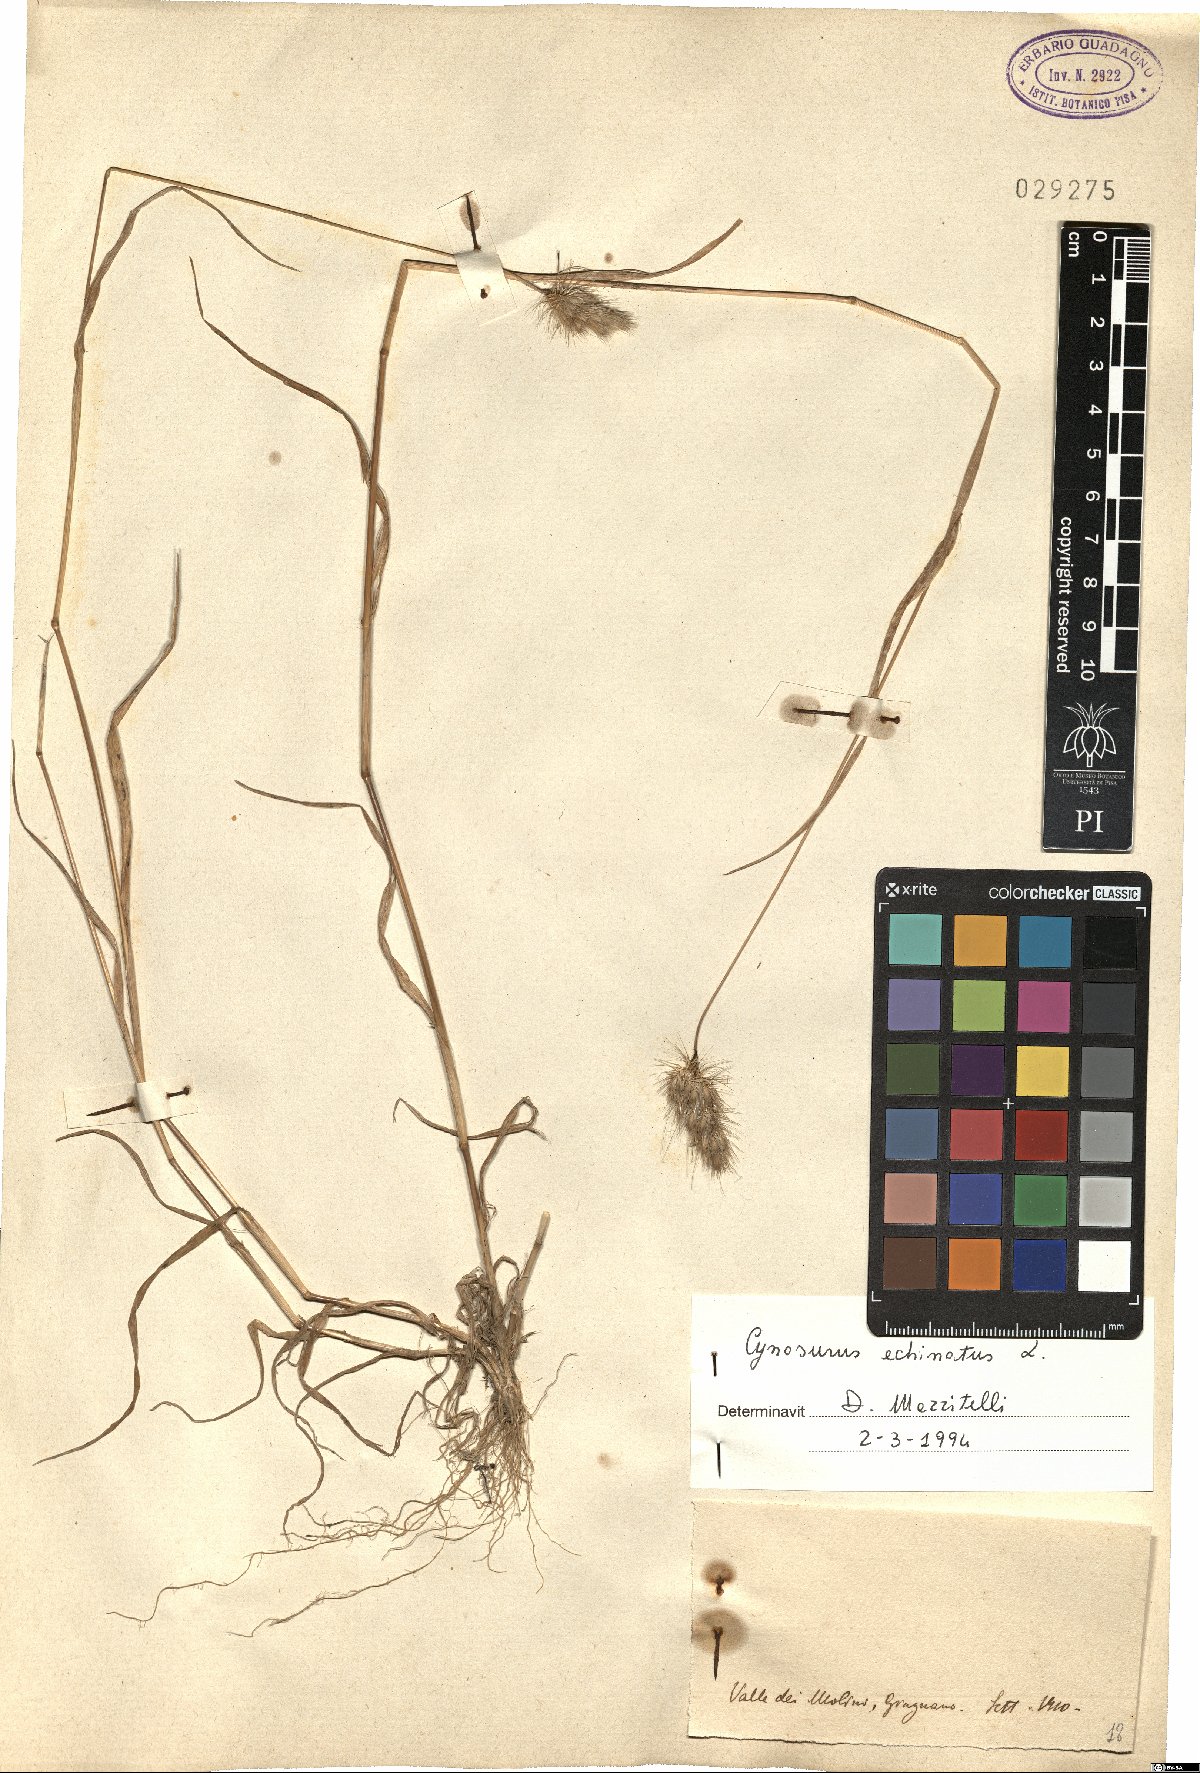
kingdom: Plantae
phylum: Tracheophyta
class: Liliopsida
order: Poales
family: Poaceae
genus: Cynosurus
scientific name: Cynosurus echinatus
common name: Rough dog's-tail
